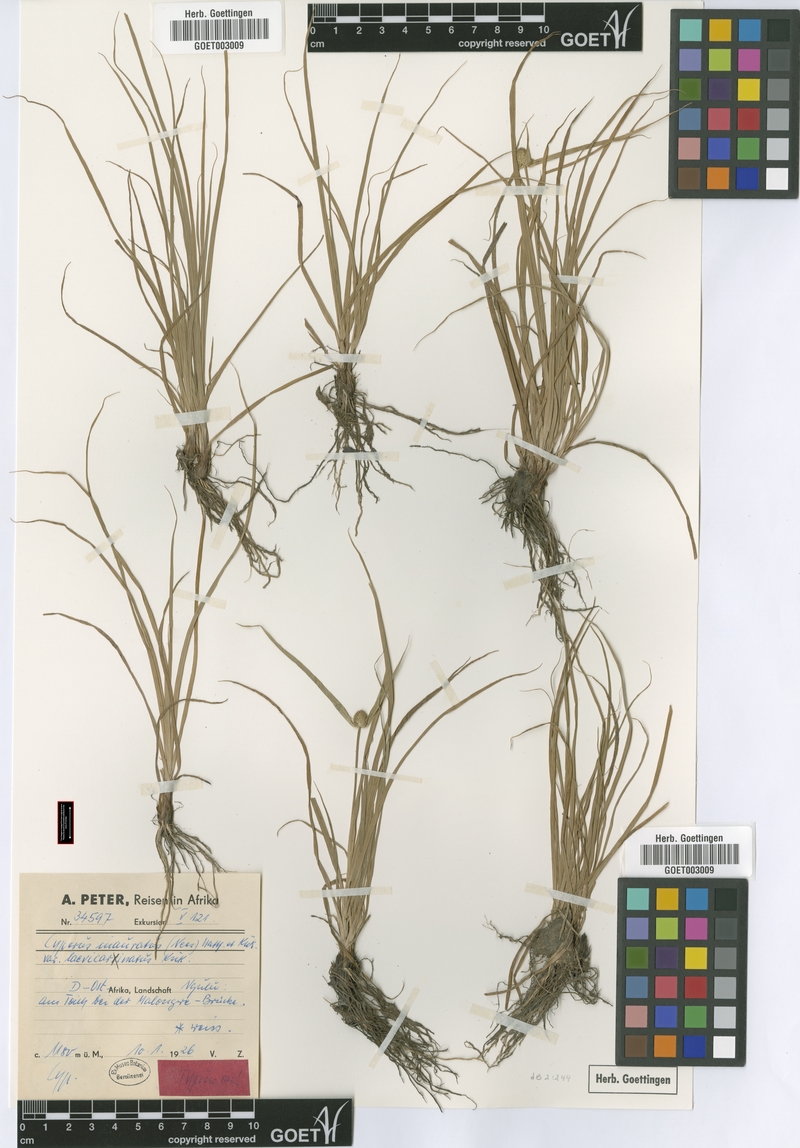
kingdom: Plantae
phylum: Tracheophyta
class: Liliopsida
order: Poales
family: Cyperaceae
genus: Cyperus
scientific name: Cyperus inauratus
